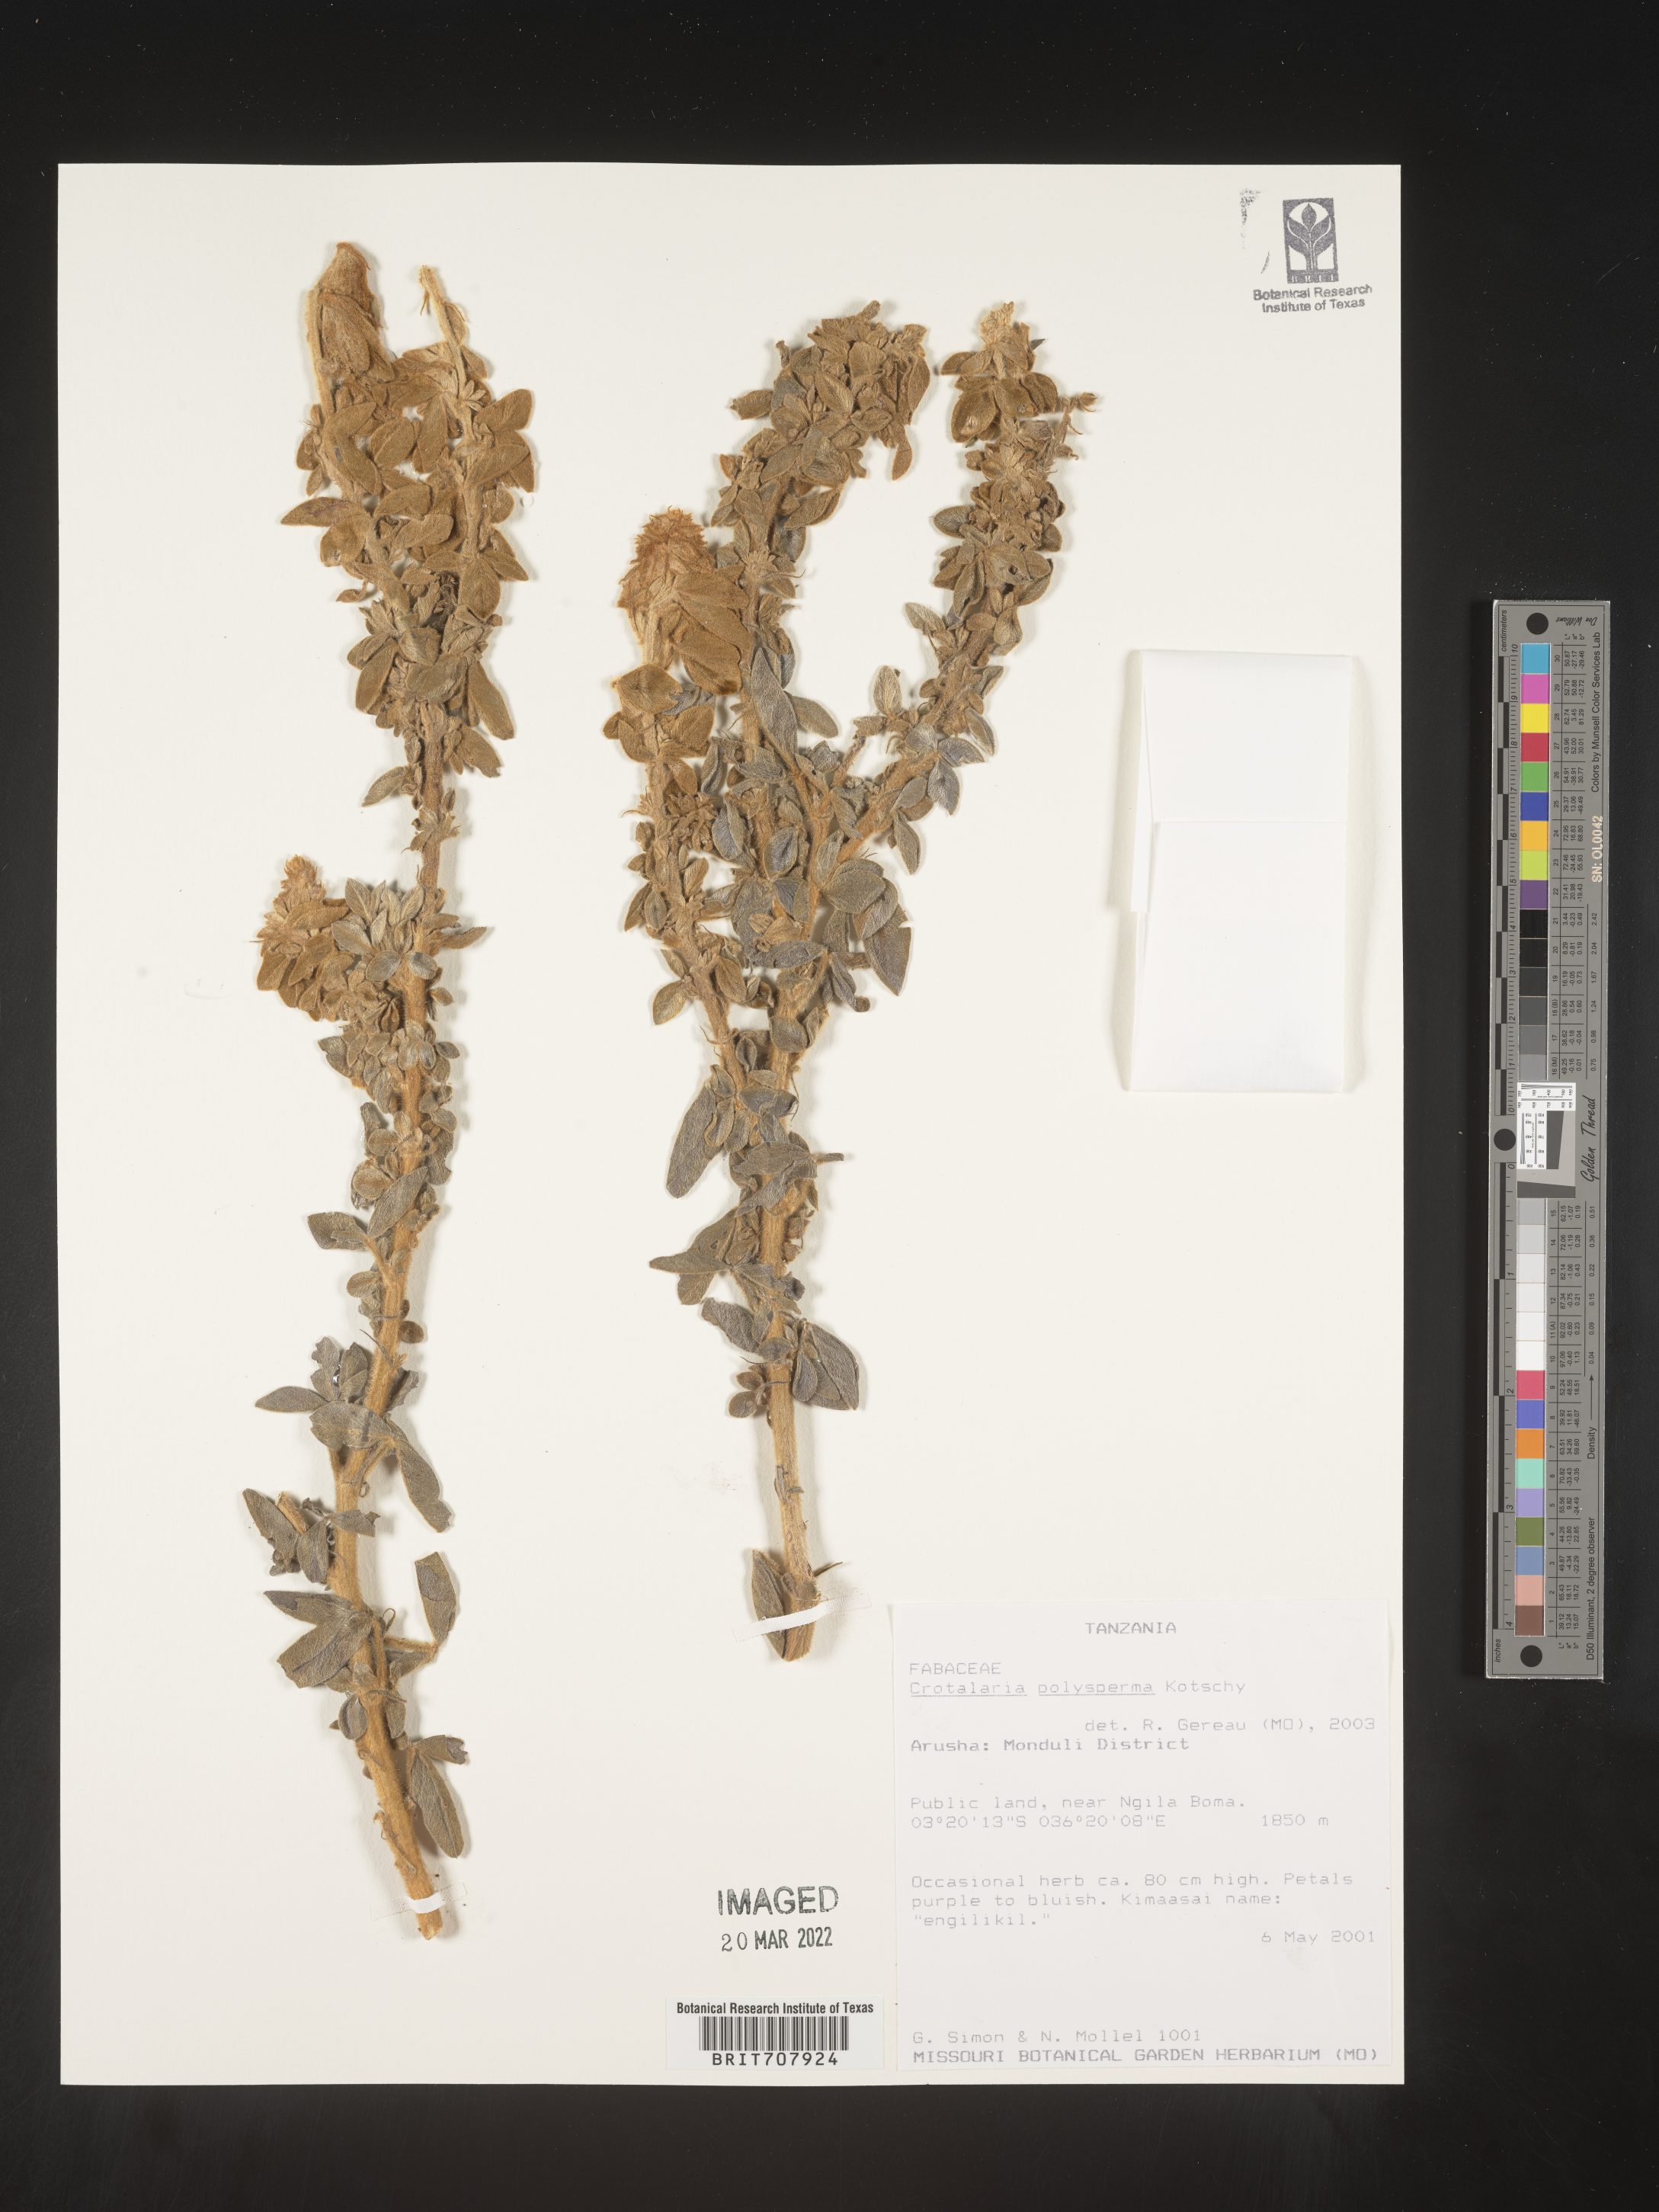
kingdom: Plantae
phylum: Tracheophyta
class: Magnoliopsida
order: Fabales
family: Fabaceae
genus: Crotalaria
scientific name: Crotalaria
